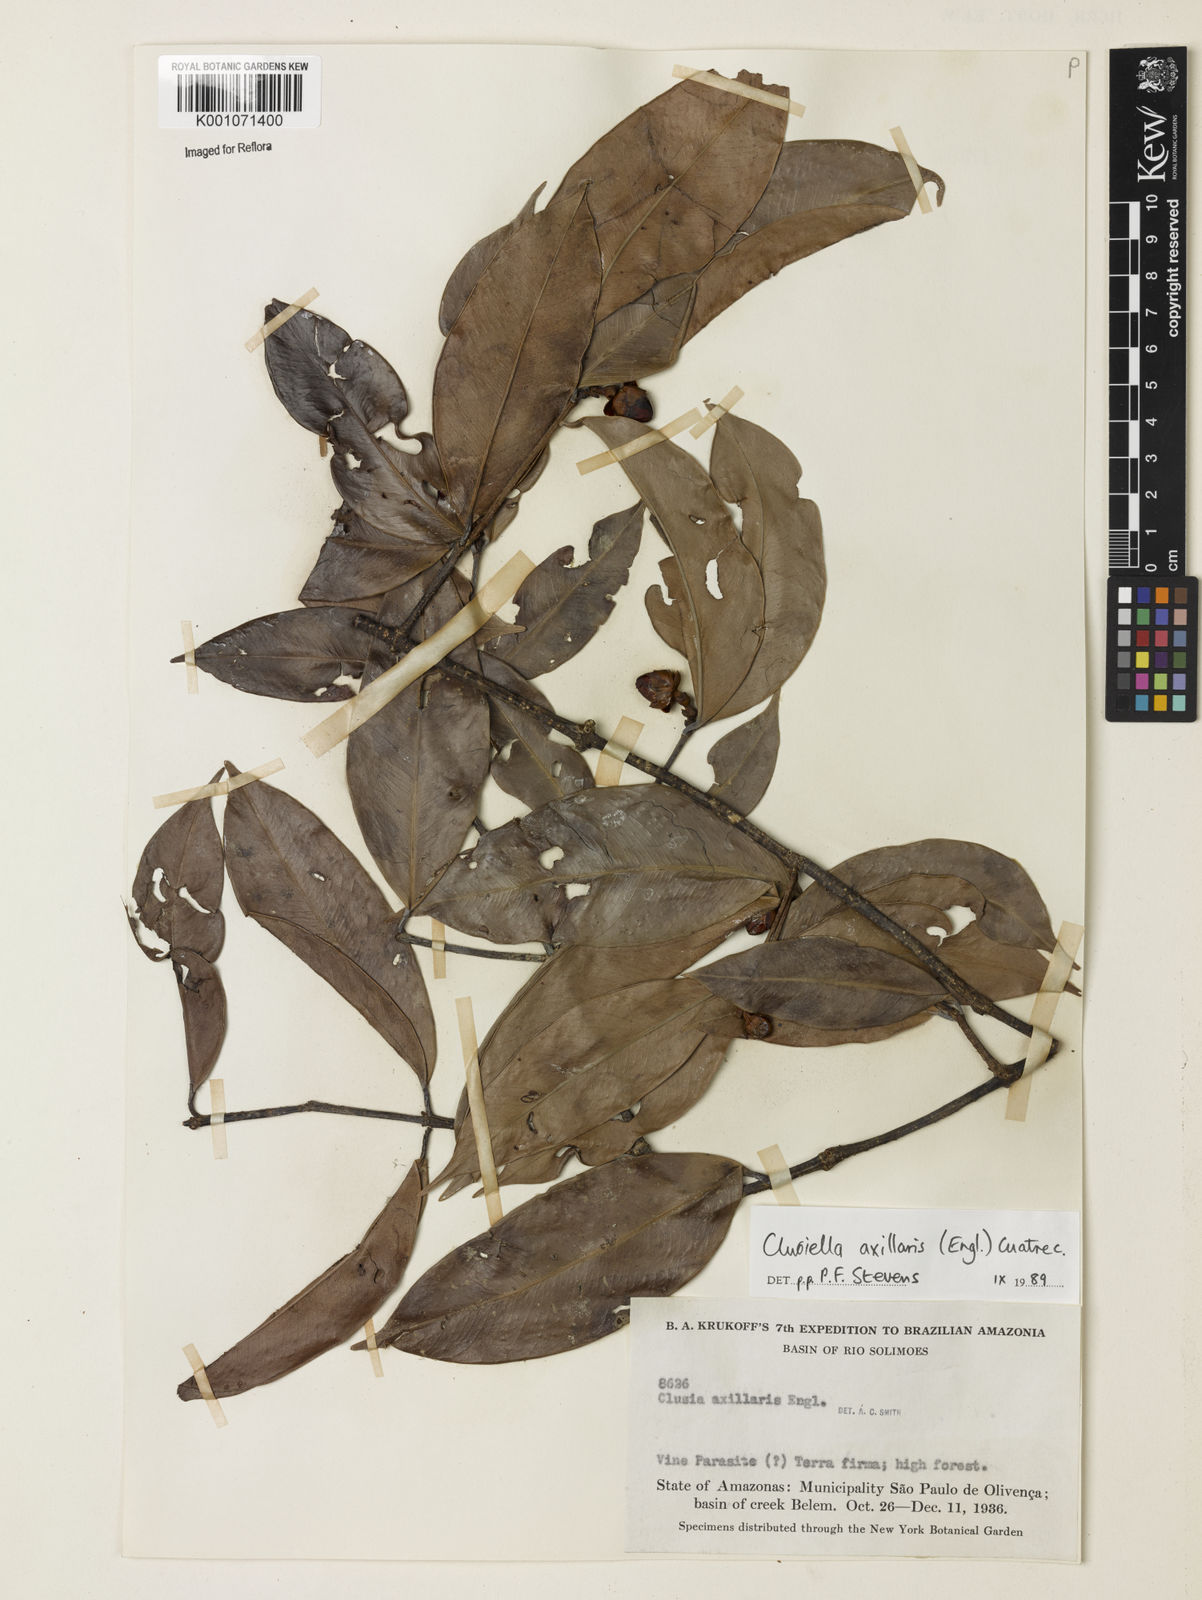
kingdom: Plantae
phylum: Tracheophyta
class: Magnoliopsida
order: Malpighiales
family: Calophyllaceae
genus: Clusiella
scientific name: Clusiella axillaris
